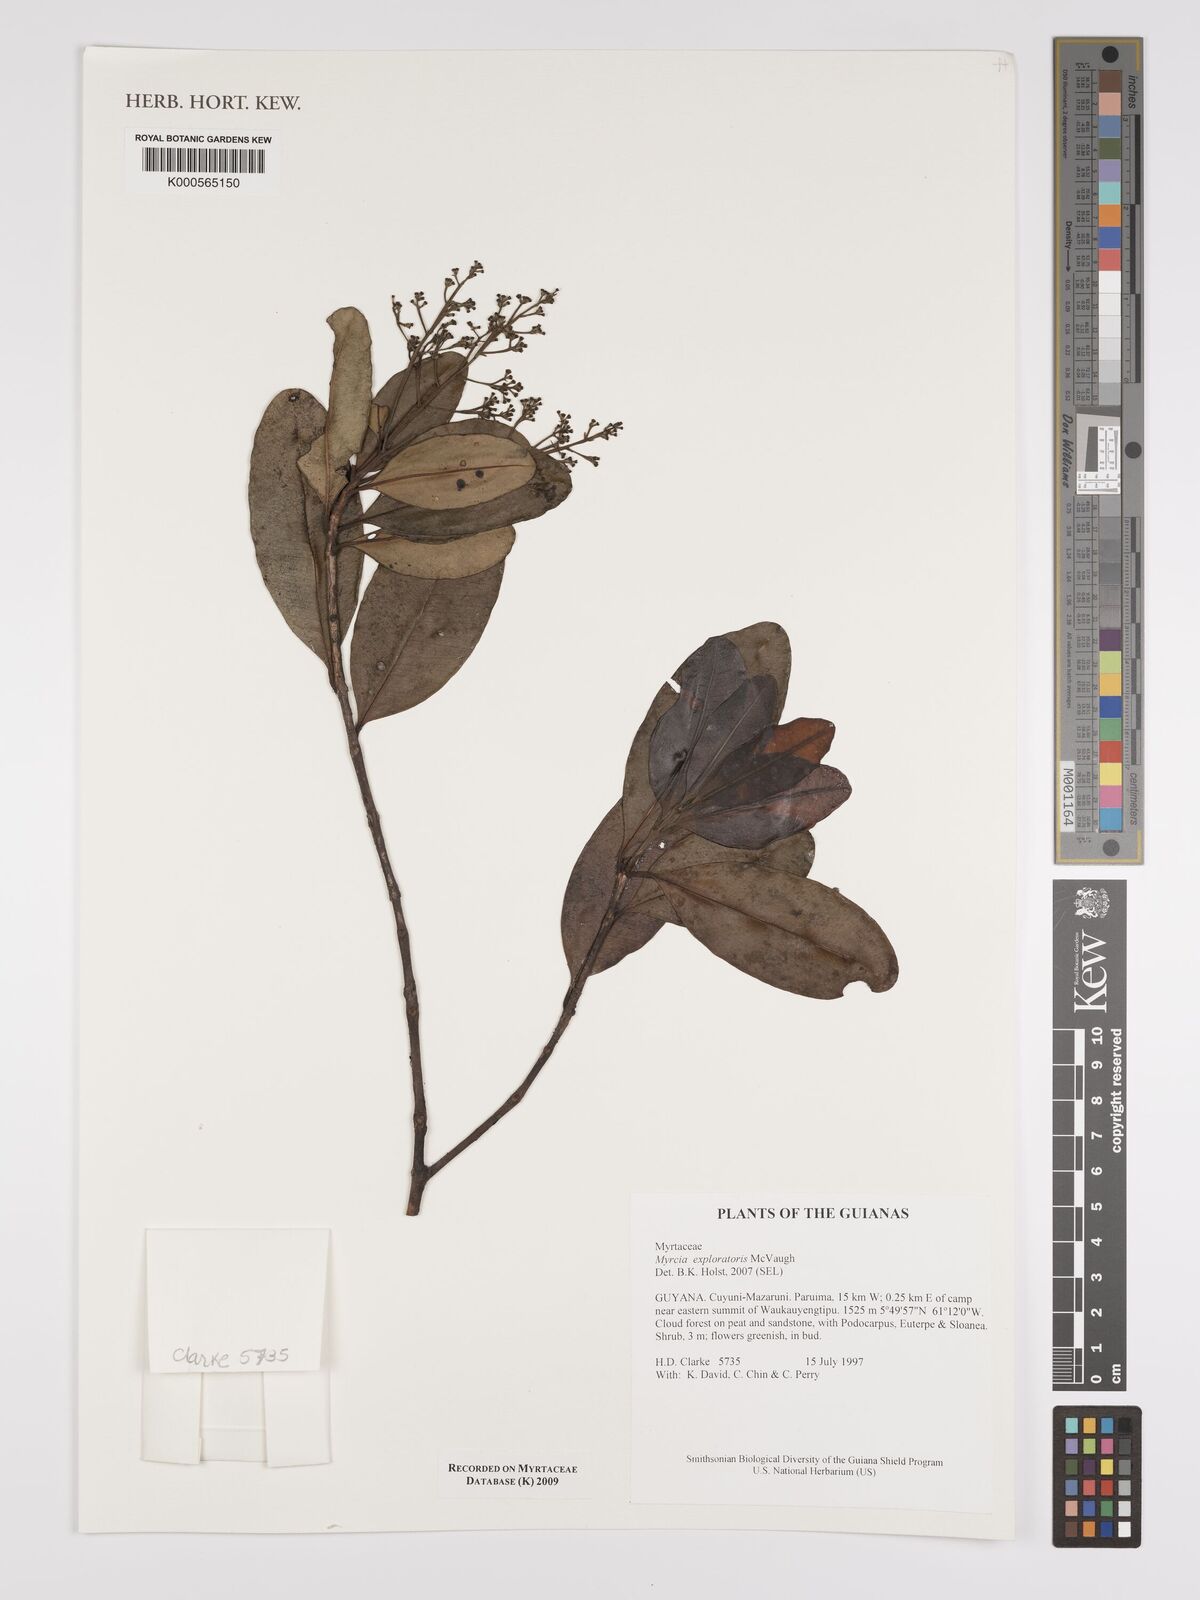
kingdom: Plantae
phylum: Tracheophyta
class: Magnoliopsida
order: Myrtales
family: Myrtaceae
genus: Myrcia
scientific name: Myrcia exploratoris
